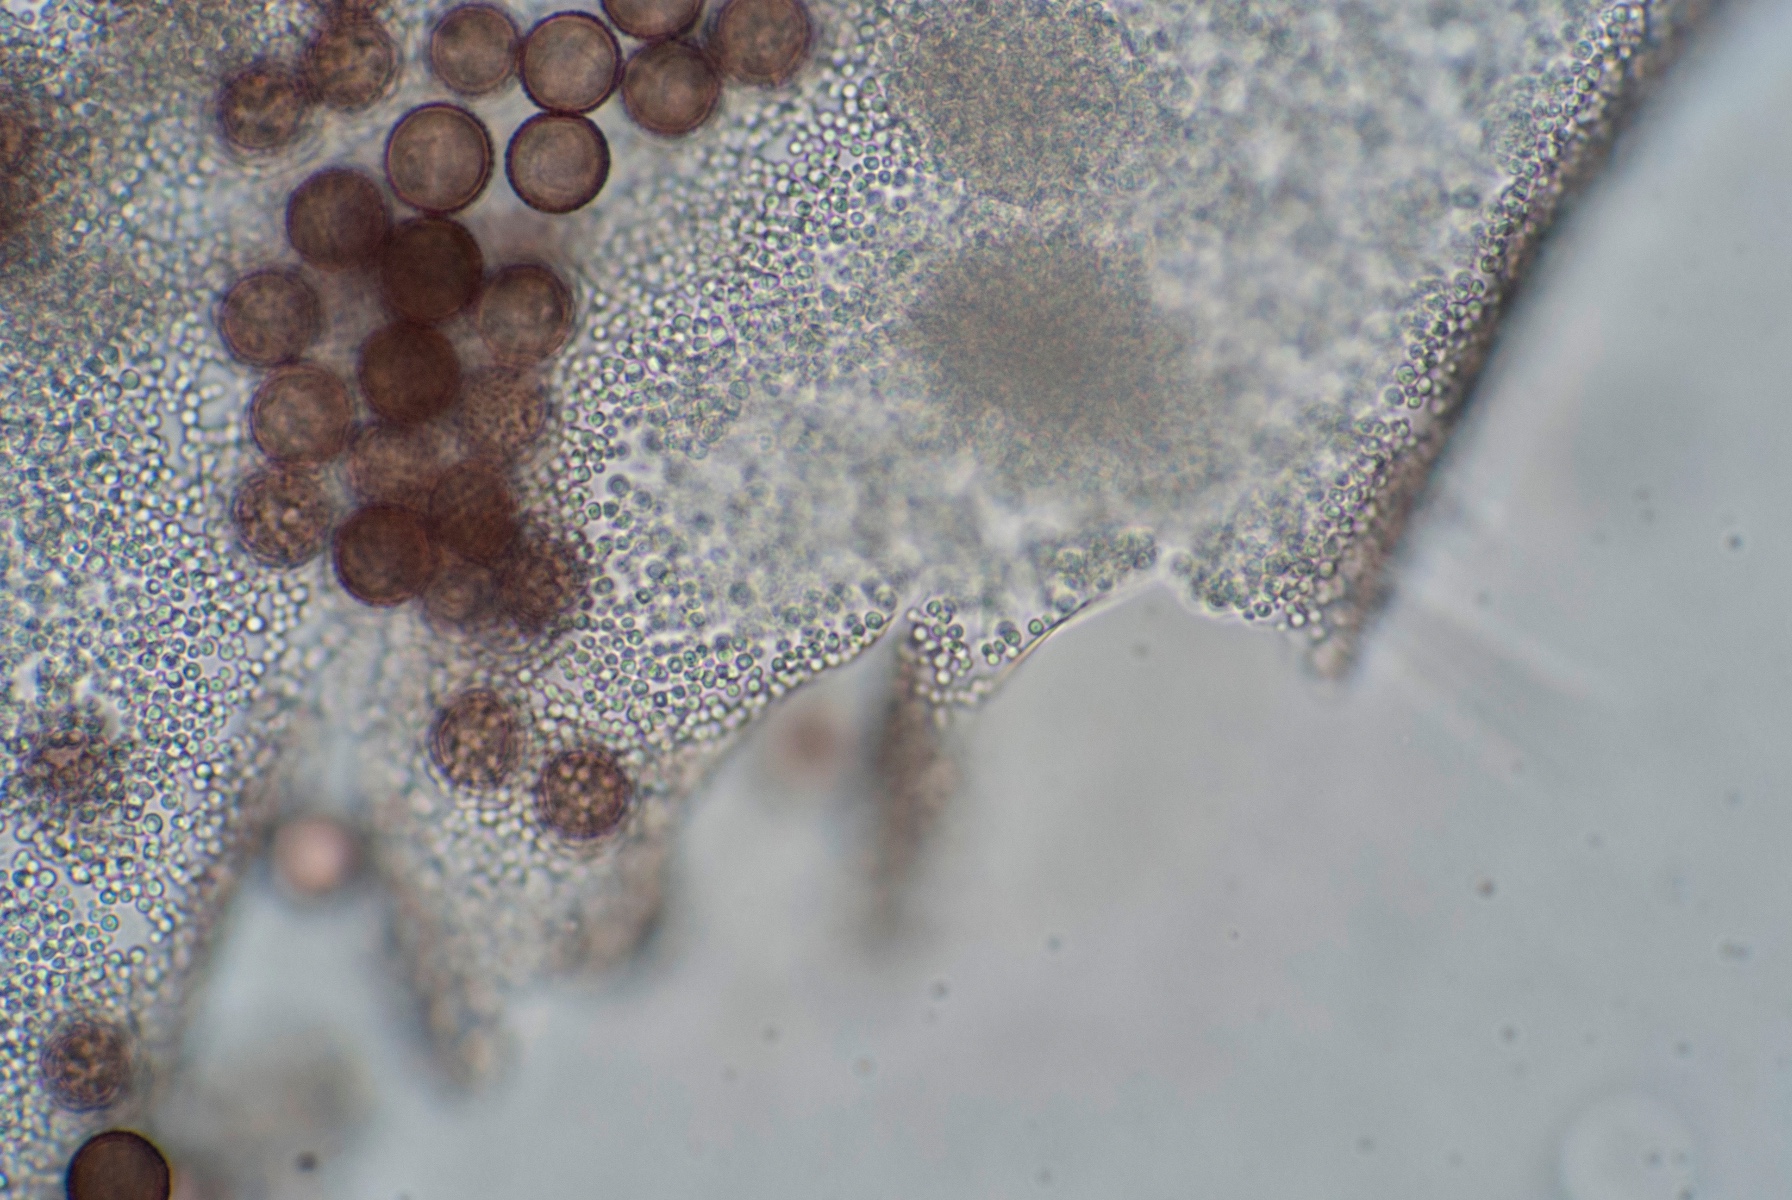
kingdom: Protozoa
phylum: Mycetozoa
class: Myxomycetes
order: Physarales
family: Didymiaceae
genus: Diderma
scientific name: Diderma spumarioides
